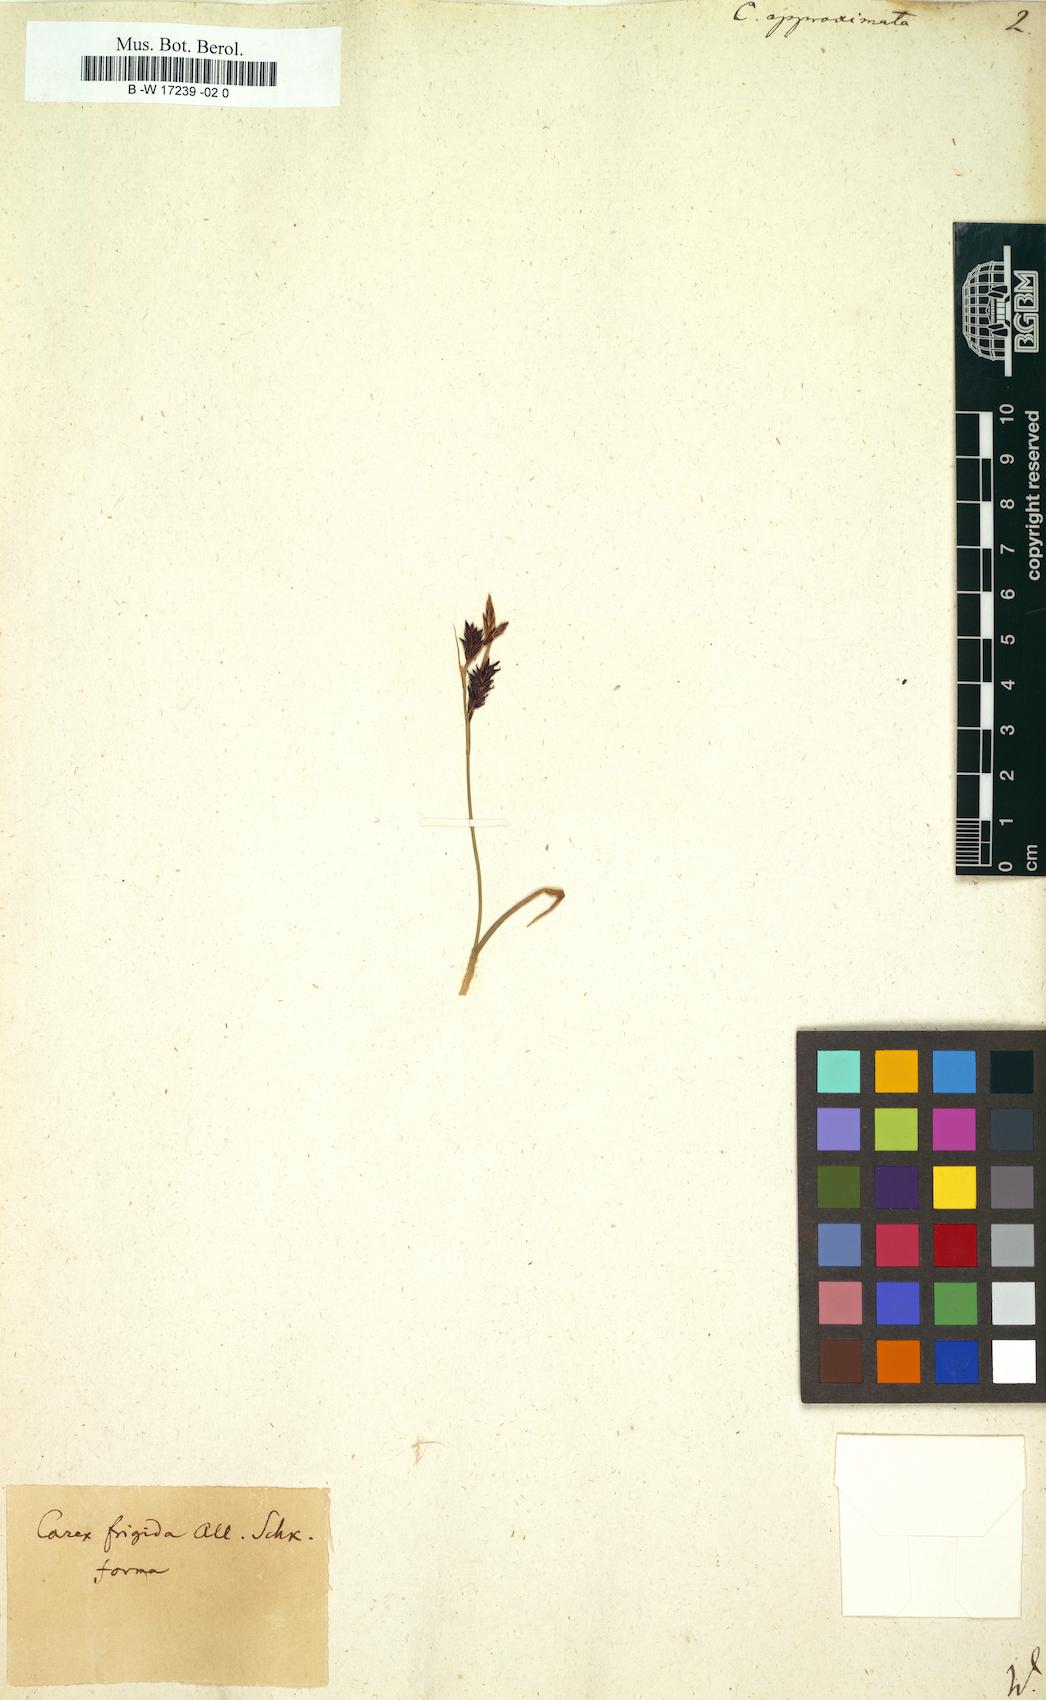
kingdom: Plantae
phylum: Tracheophyta
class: Liliopsida
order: Poales
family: Cyperaceae
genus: Carex
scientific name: Carex ericetorum
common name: Rare spring-sedge
